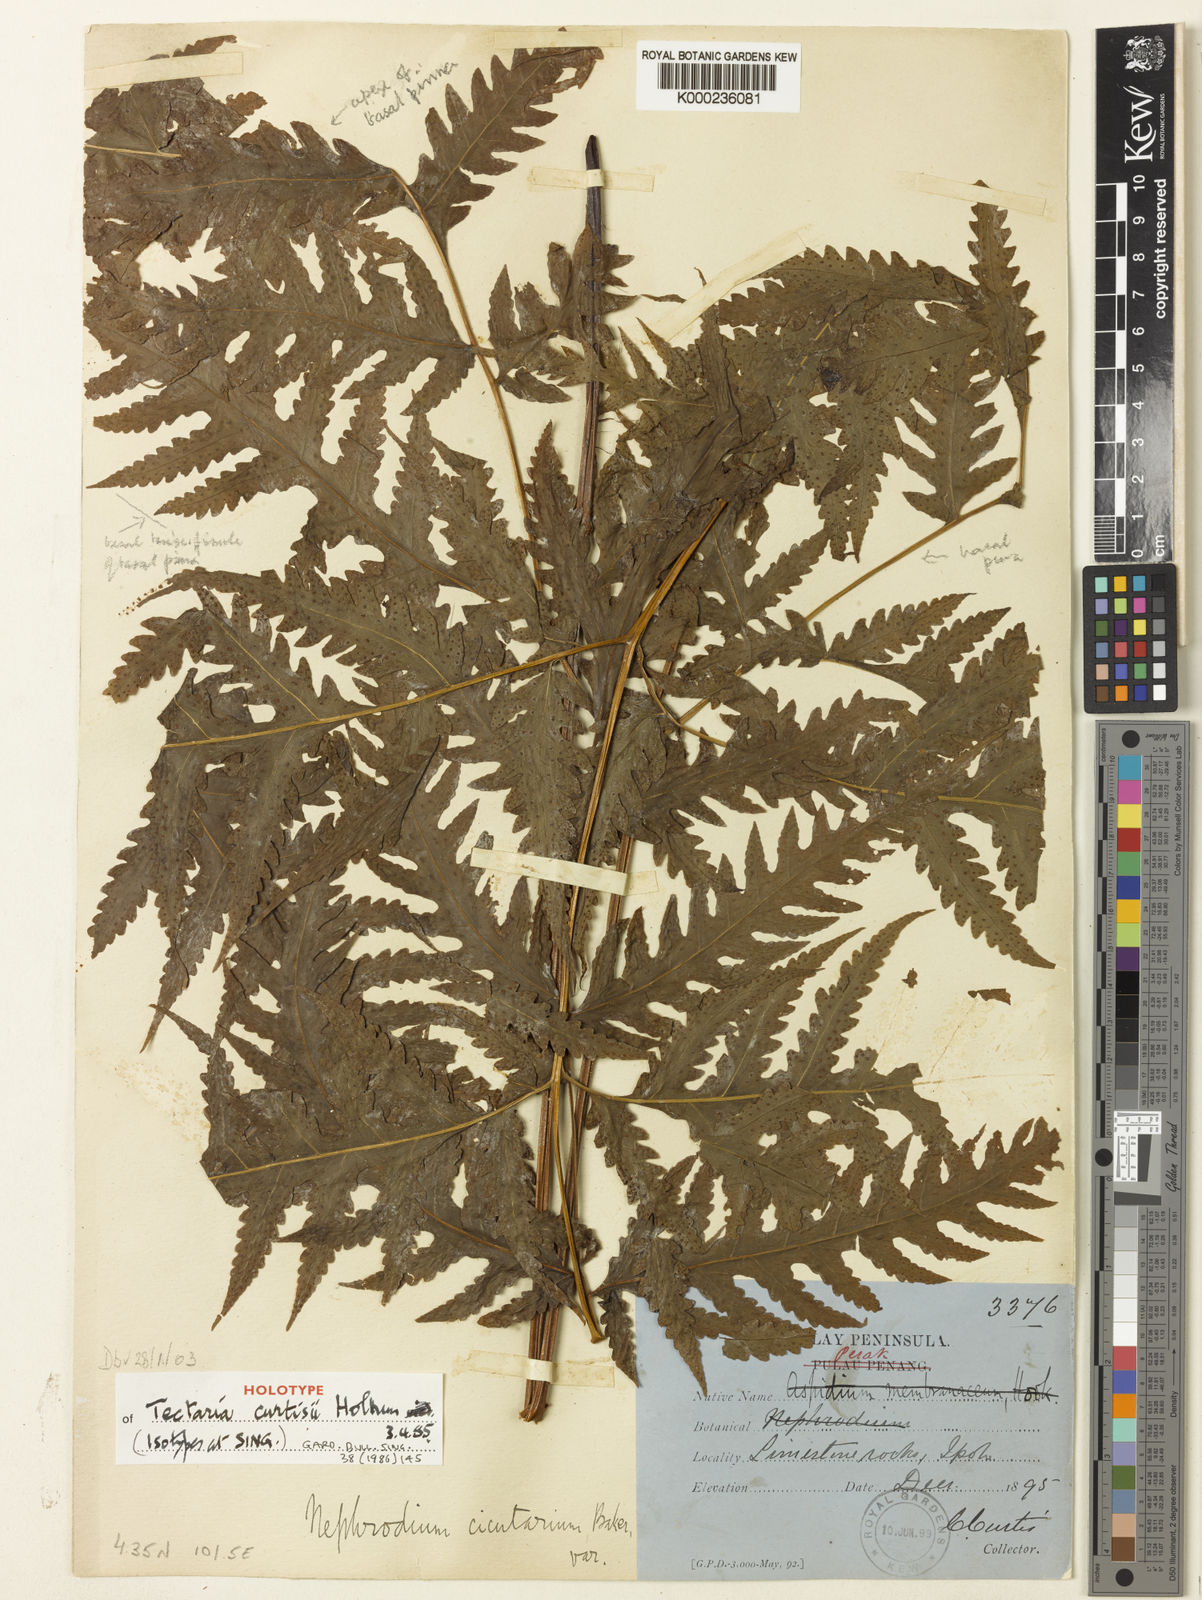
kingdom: Plantae
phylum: Tracheophyta
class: Polypodiopsida
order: Polypodiales
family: Tectariaceae
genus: Tectaria
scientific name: Tectaria curtisii
